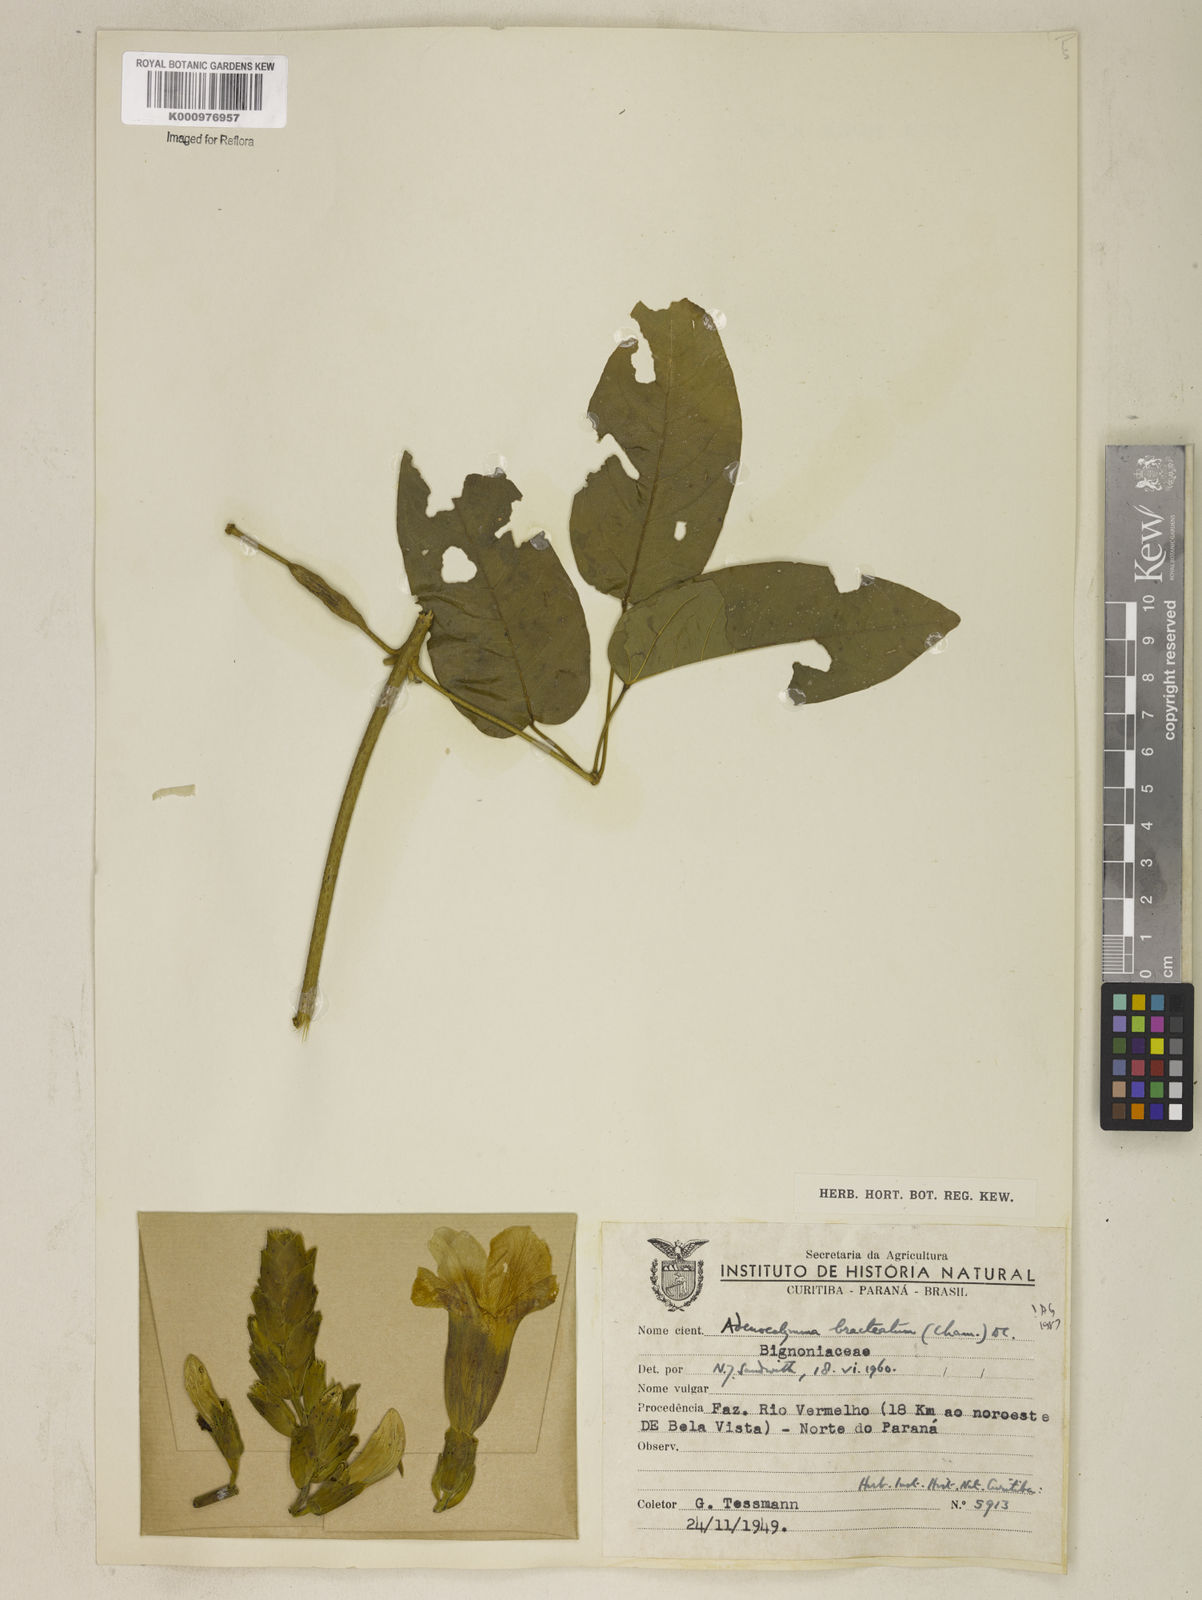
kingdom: Plantae
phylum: Tracheophyta
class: Magnoliopsida
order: Lamiales
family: Bignoniaceae
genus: Adenocalymma
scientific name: Adenocalymma bracteatum
